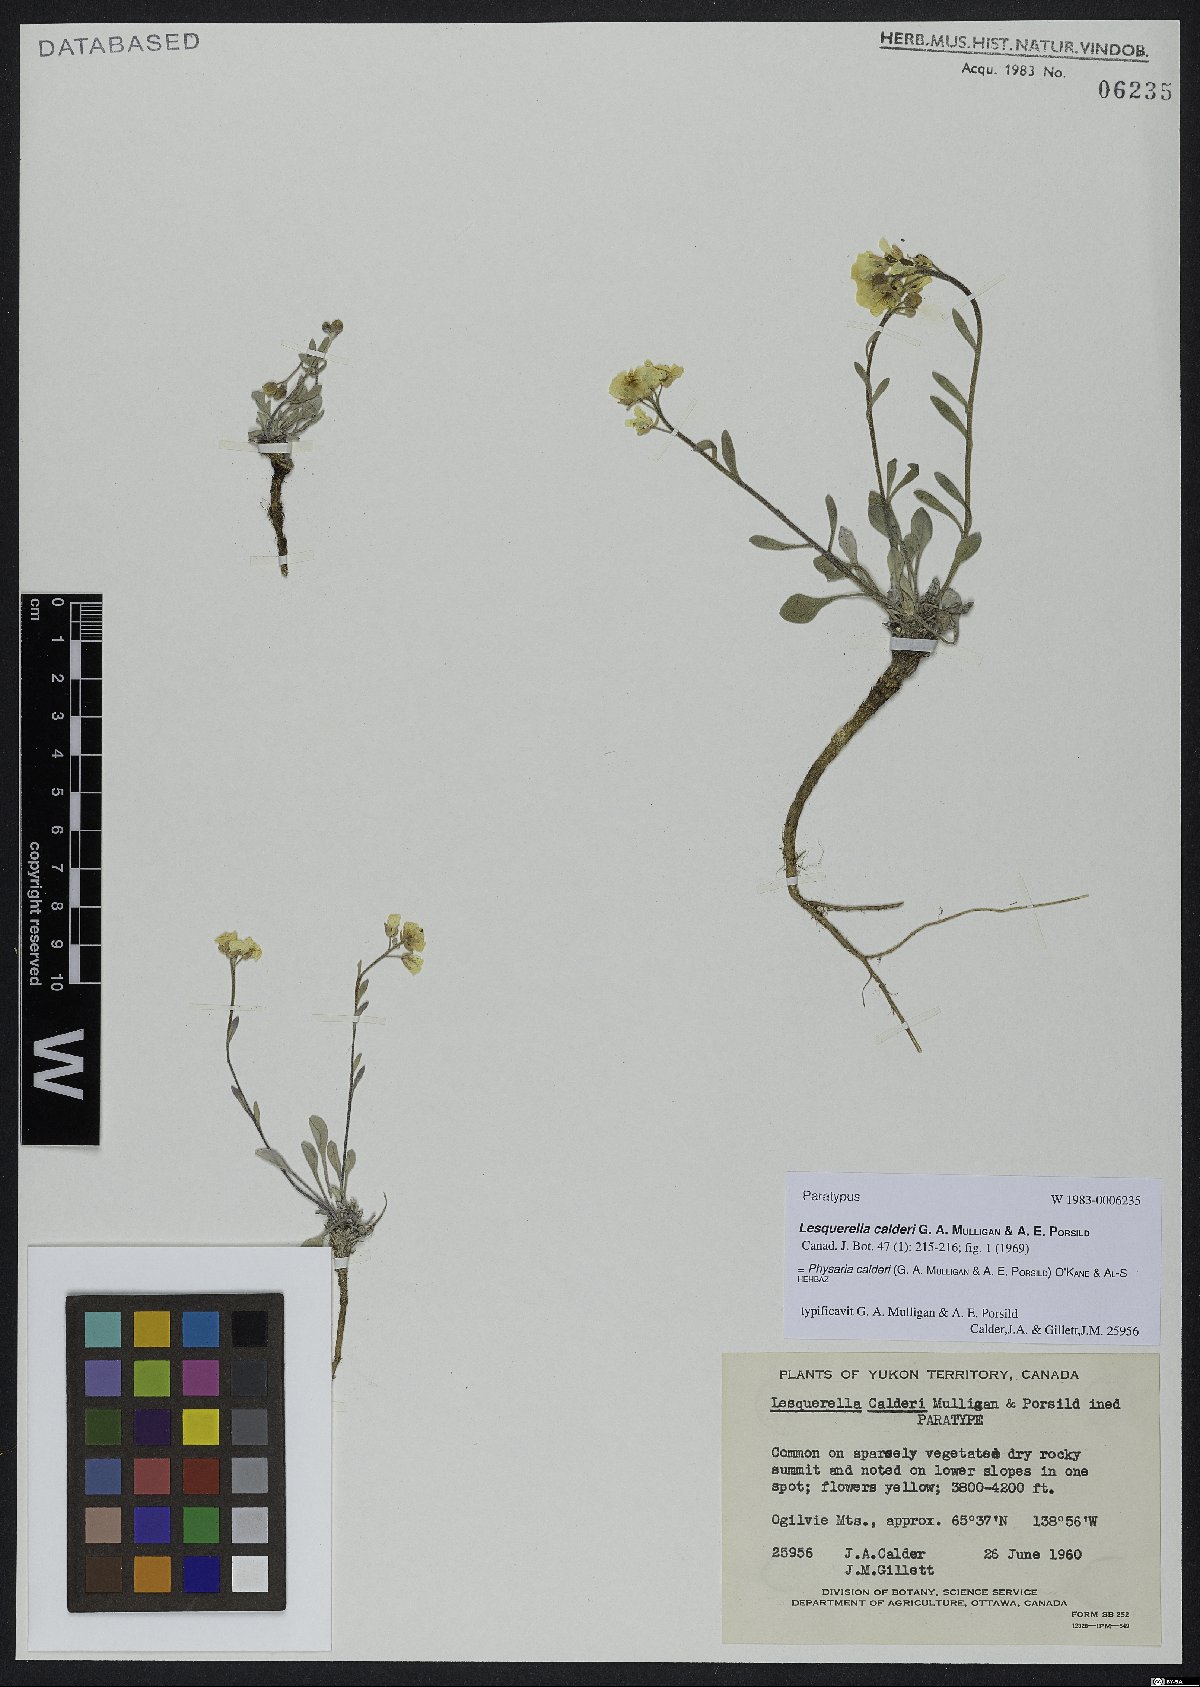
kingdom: Plantae
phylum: Tracheophyta
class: Magnoliopsida
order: Brassicales
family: Brassicaceae
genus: Physaria
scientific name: Physaria calderi
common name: Calder's bladderpod
